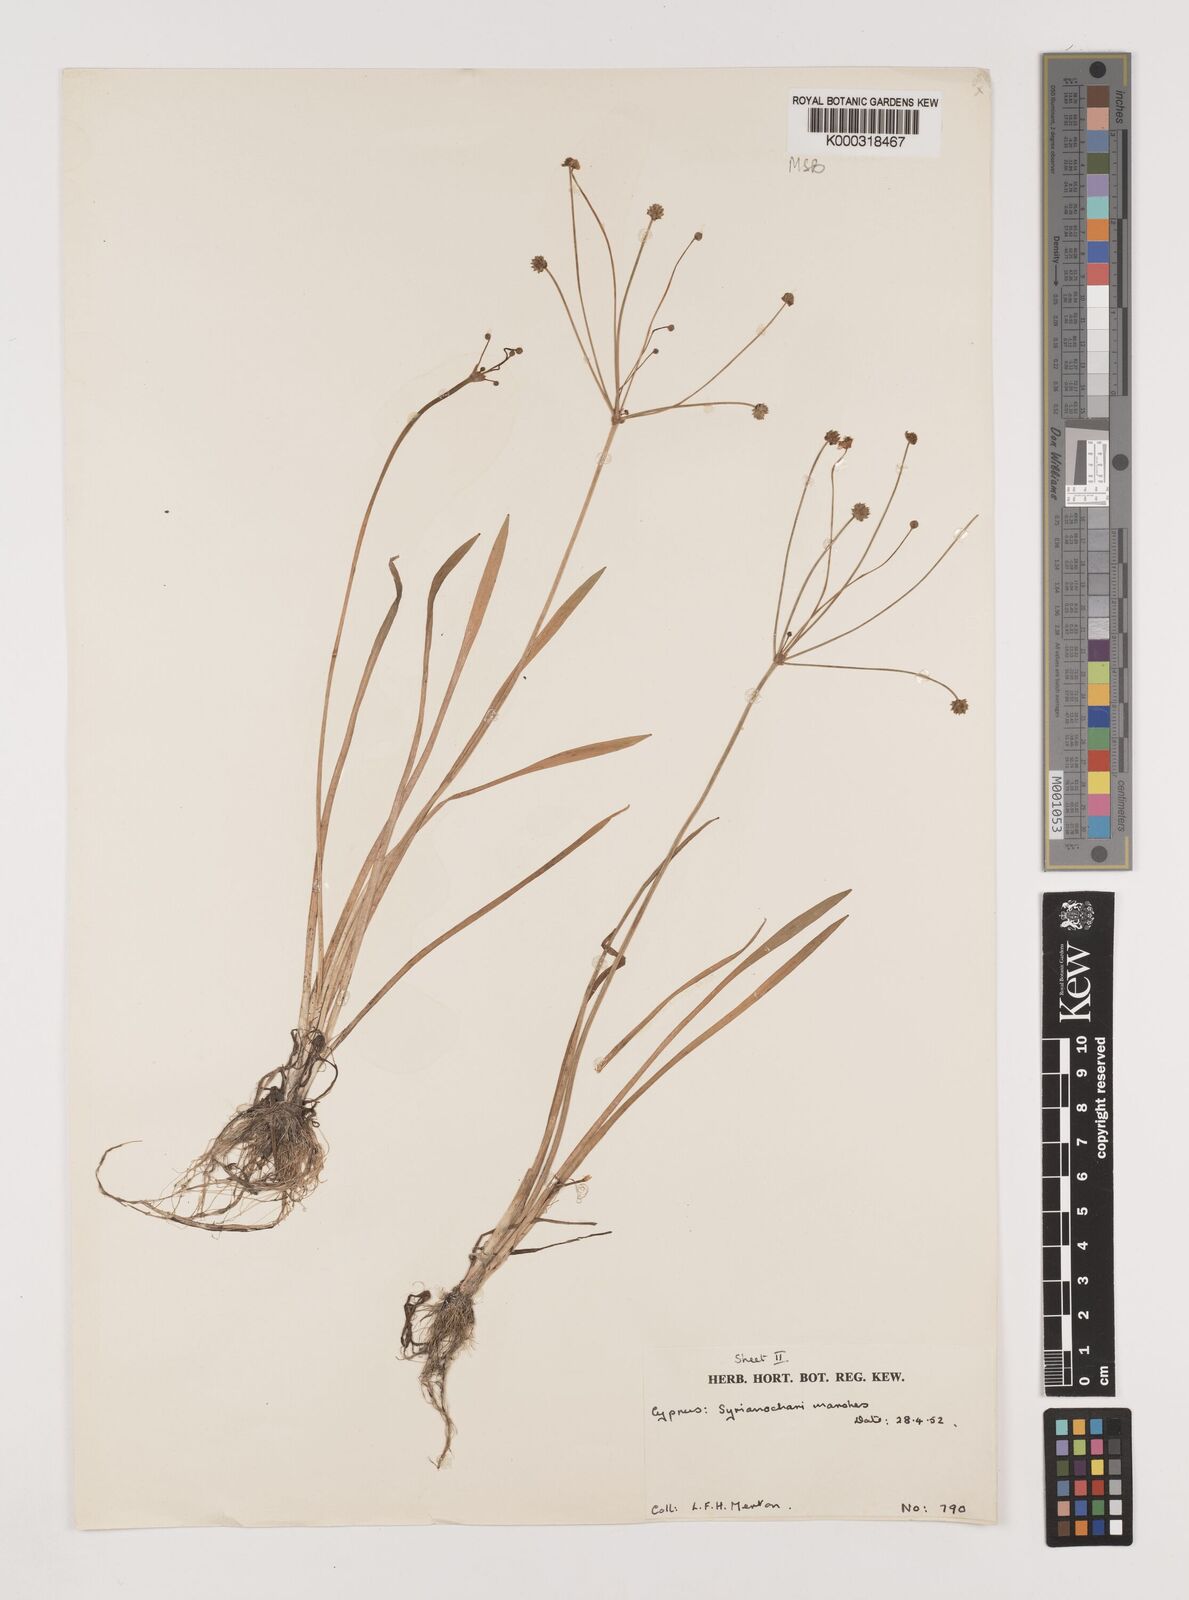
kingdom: Plantae
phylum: Tracheophyta
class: Liliopsida
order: Alismatales
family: Alismataceae
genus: Baldellia
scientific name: Baldellia ranunculoides
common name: Lesser water-plantain
